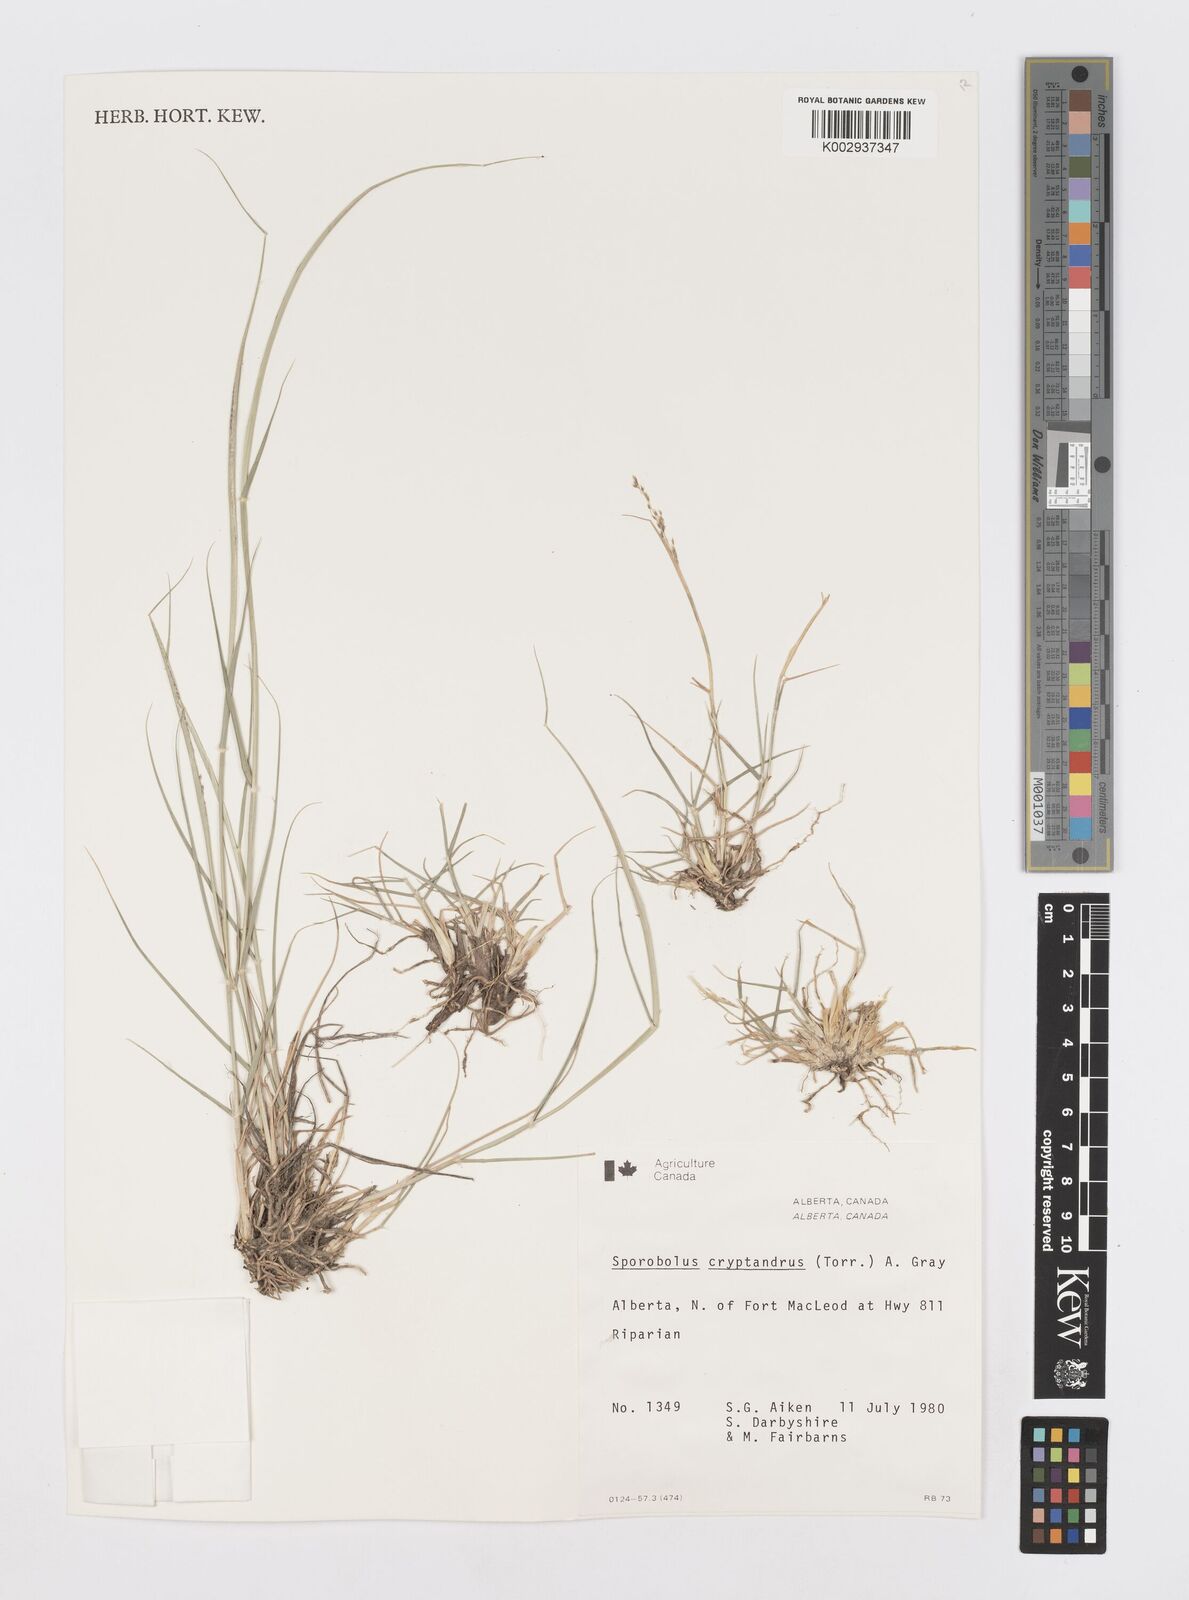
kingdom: Plantae
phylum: Tracheophyta
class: Liliopsida
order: Poales
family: Poaceae
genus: Sporobolus
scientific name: Sporobolus cryptandrus
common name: Sand dropseed
